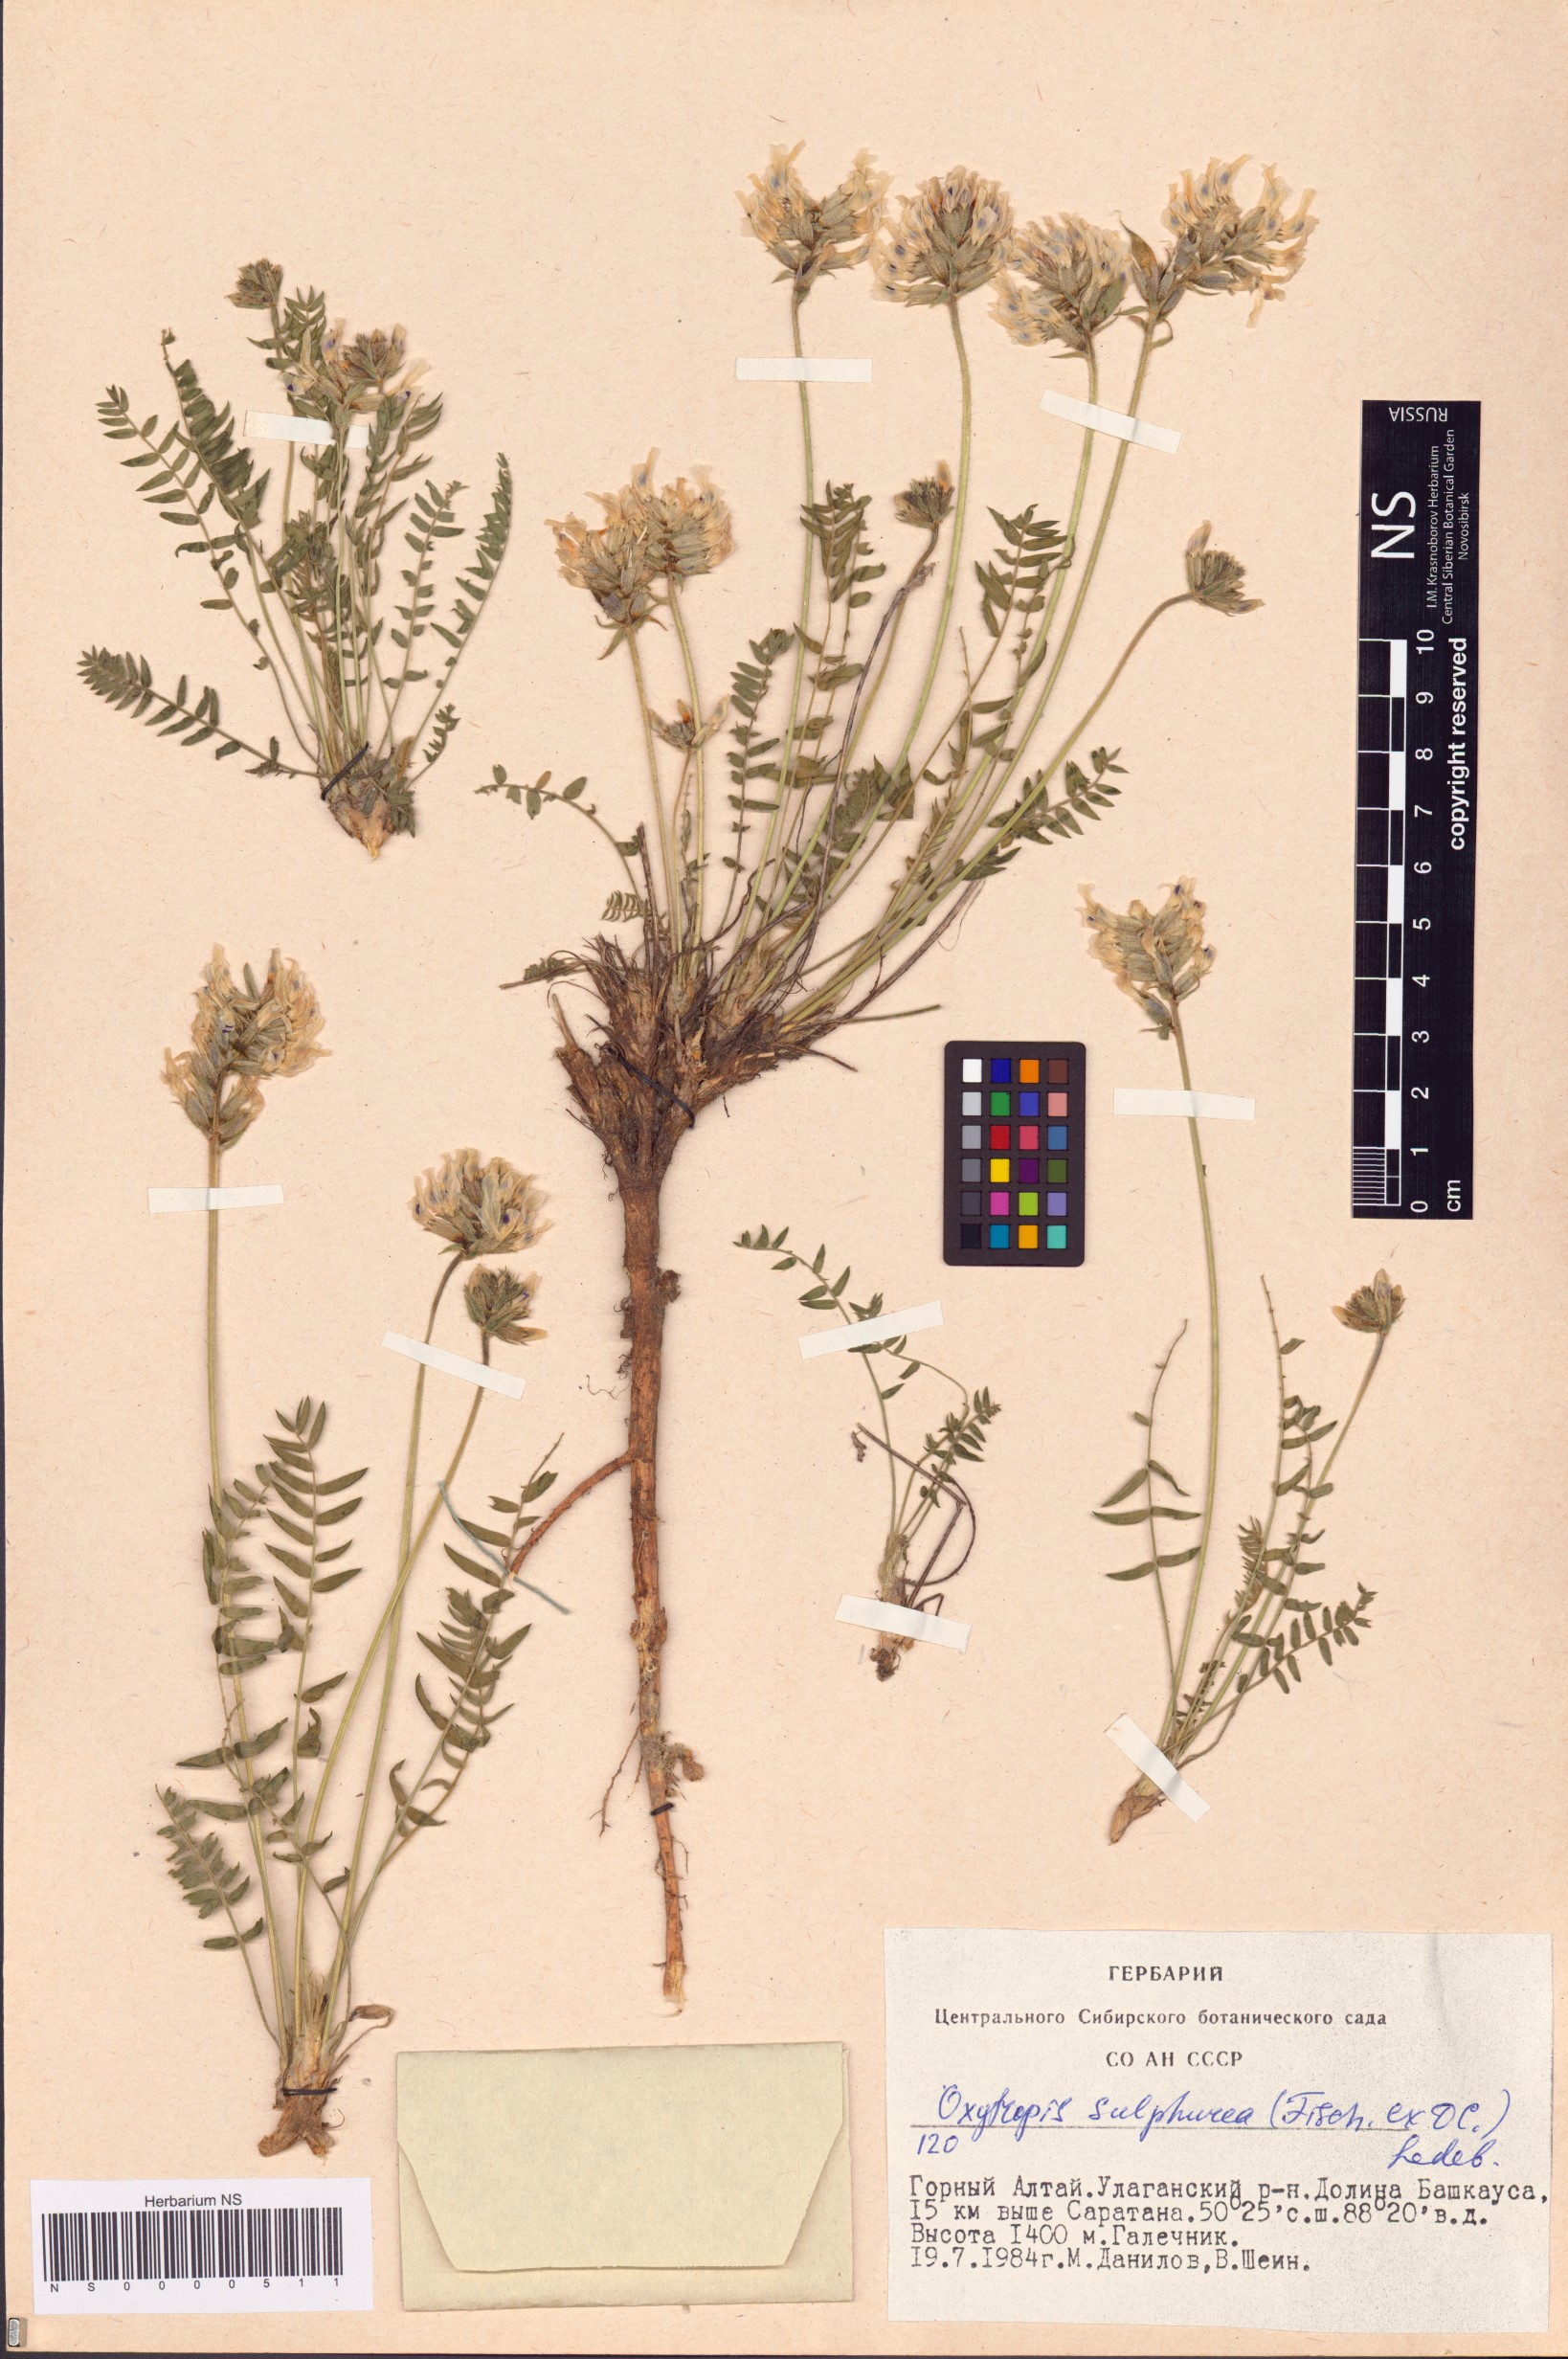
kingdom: Plantae
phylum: Tracheophyta
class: Magnoliopsida
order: Fabales
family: Fabaceae
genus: Oxytropis
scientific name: Oxytropis sulphurea
